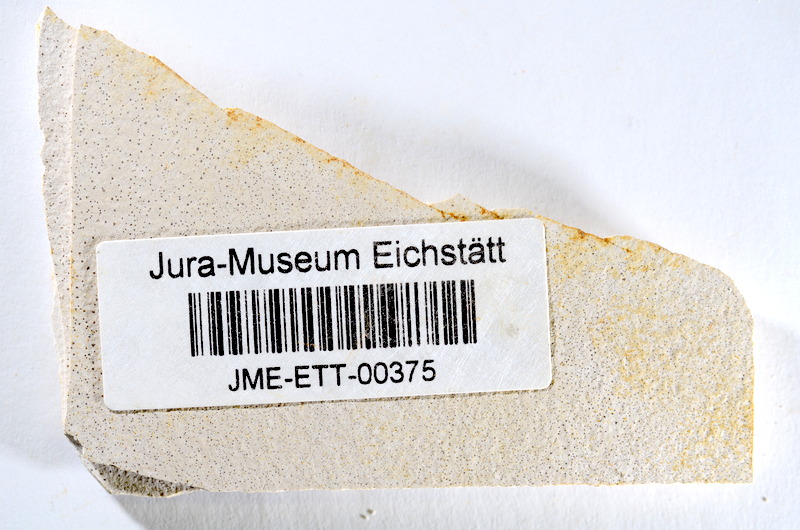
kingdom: Animalia
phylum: Chordata
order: Salmoniformes
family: Orthogonikleithridae
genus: Orthogonikleithrus
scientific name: Orthogonikleithrus hoelli
